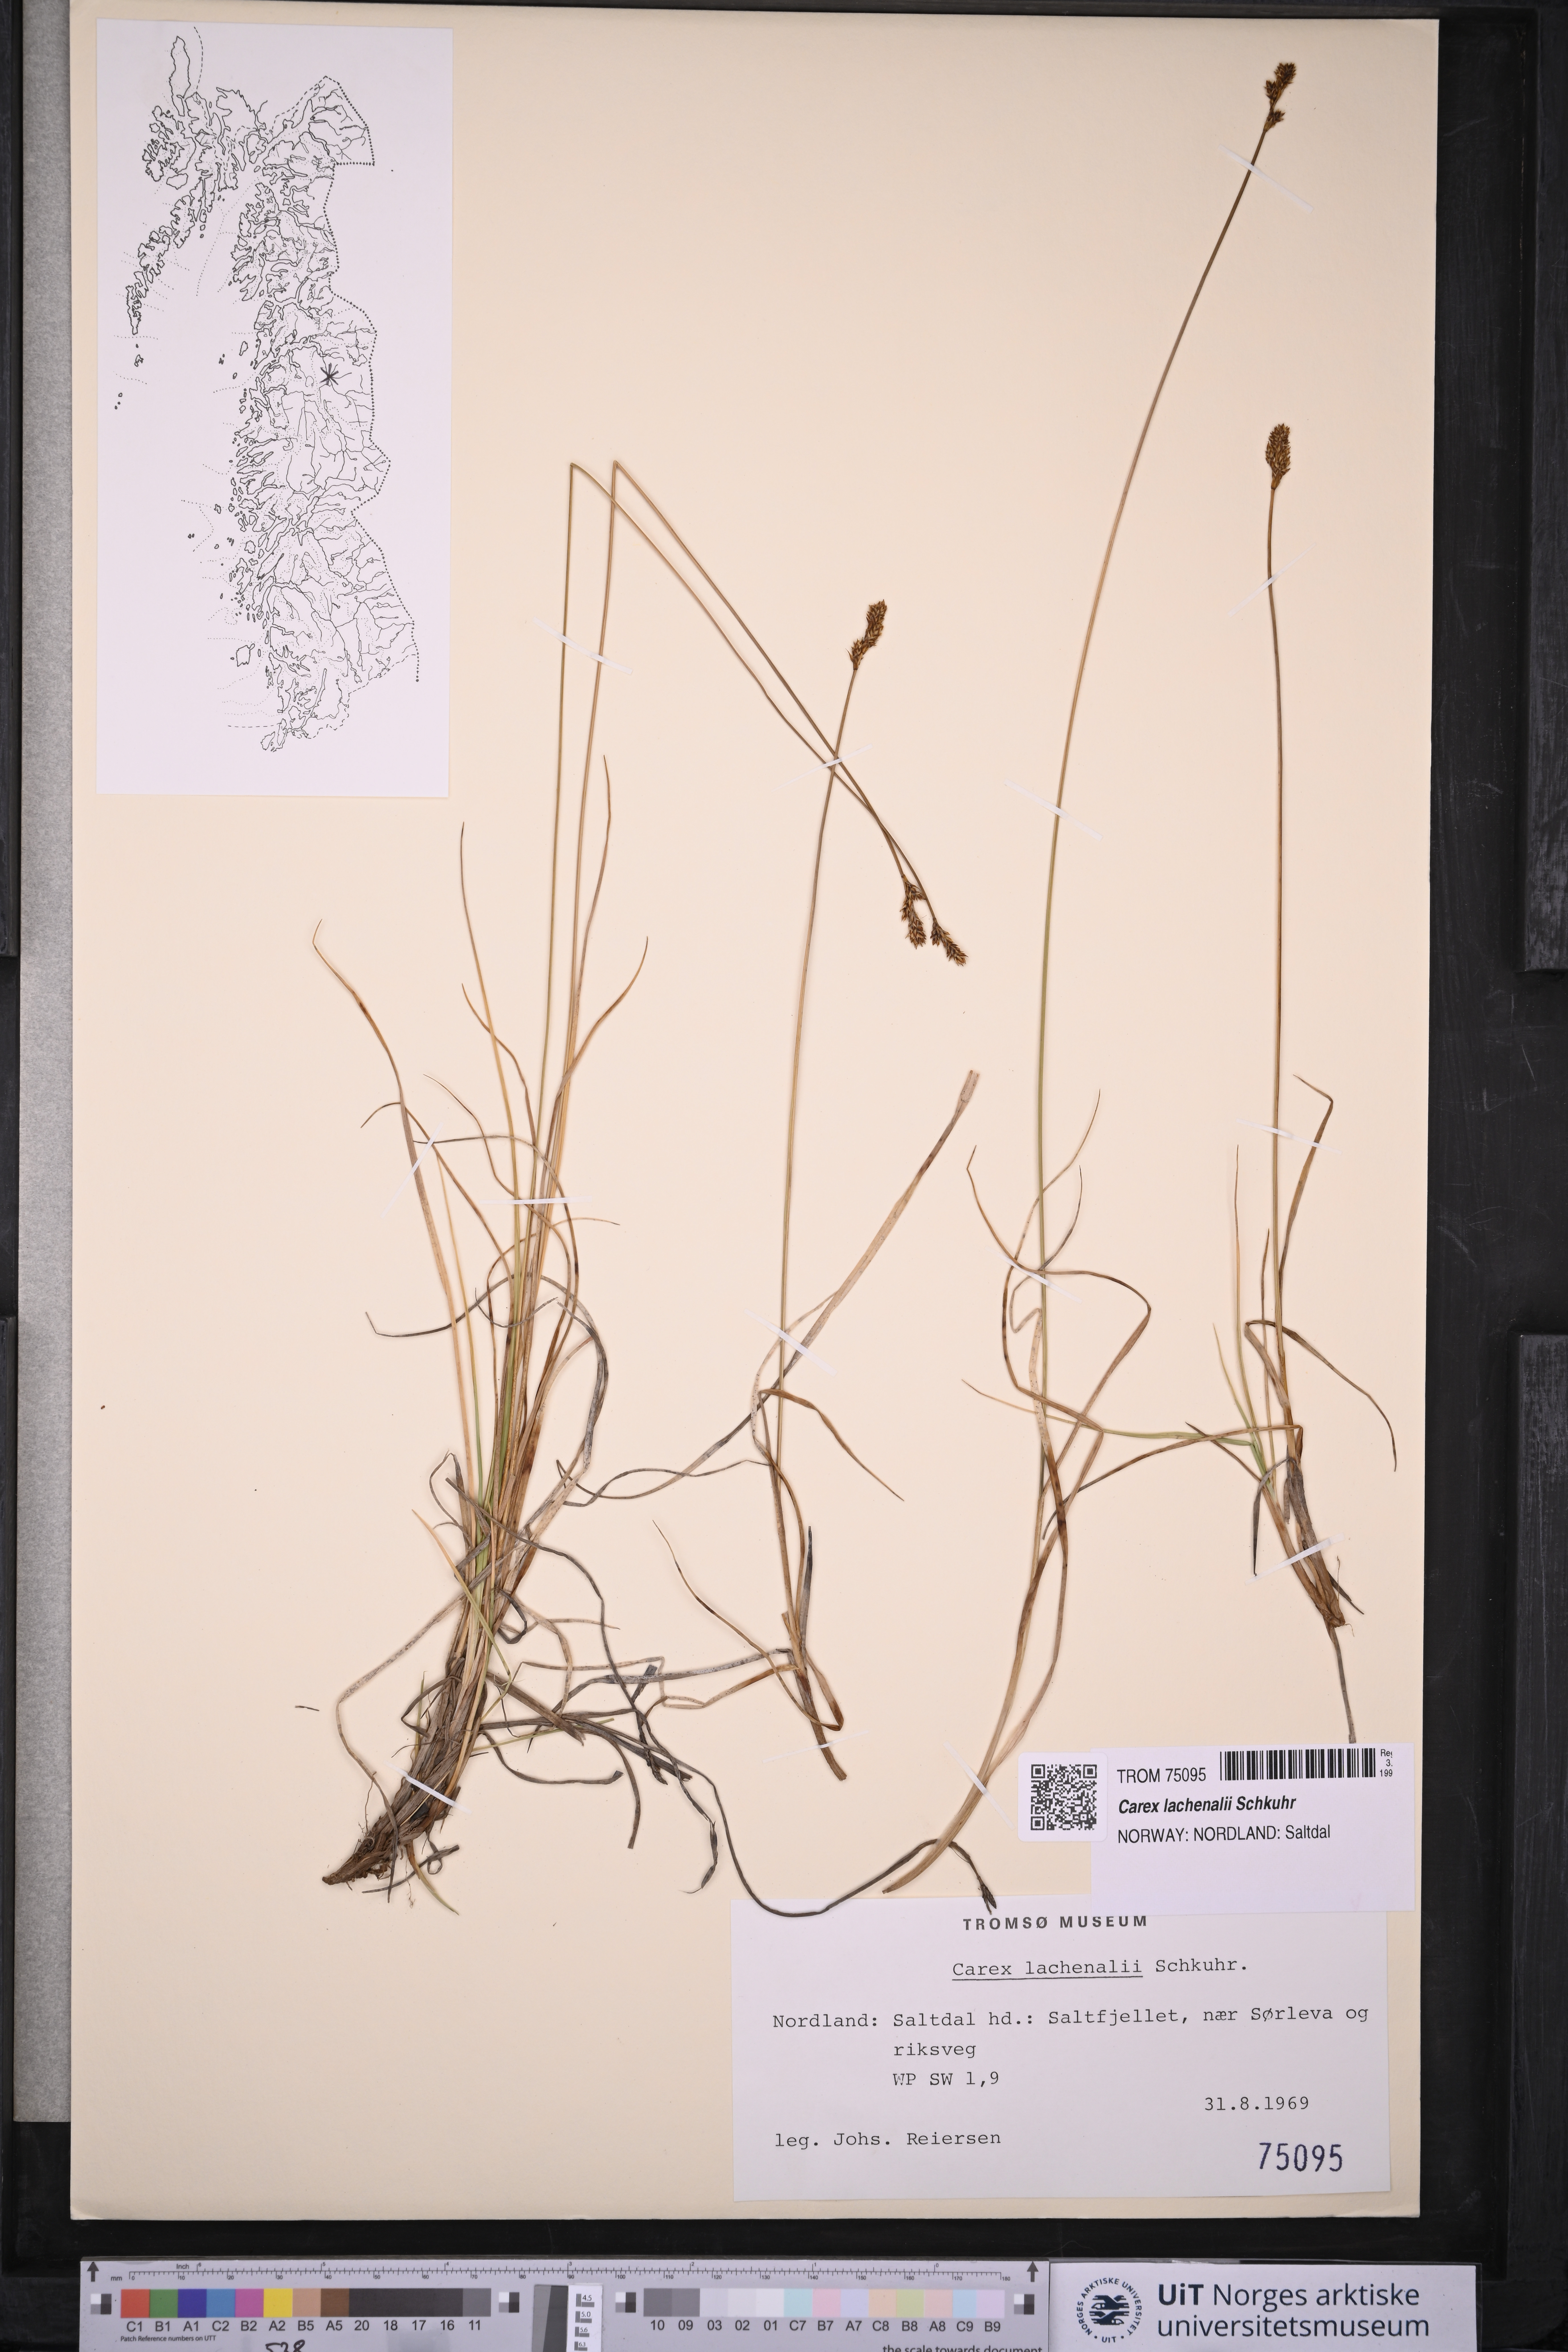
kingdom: Plantae
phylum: Tracheophyta
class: Liliopsida
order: Poales
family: Cyperaceae
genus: Carex
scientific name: Carex lachenalii
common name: Hare's-foot sedge
